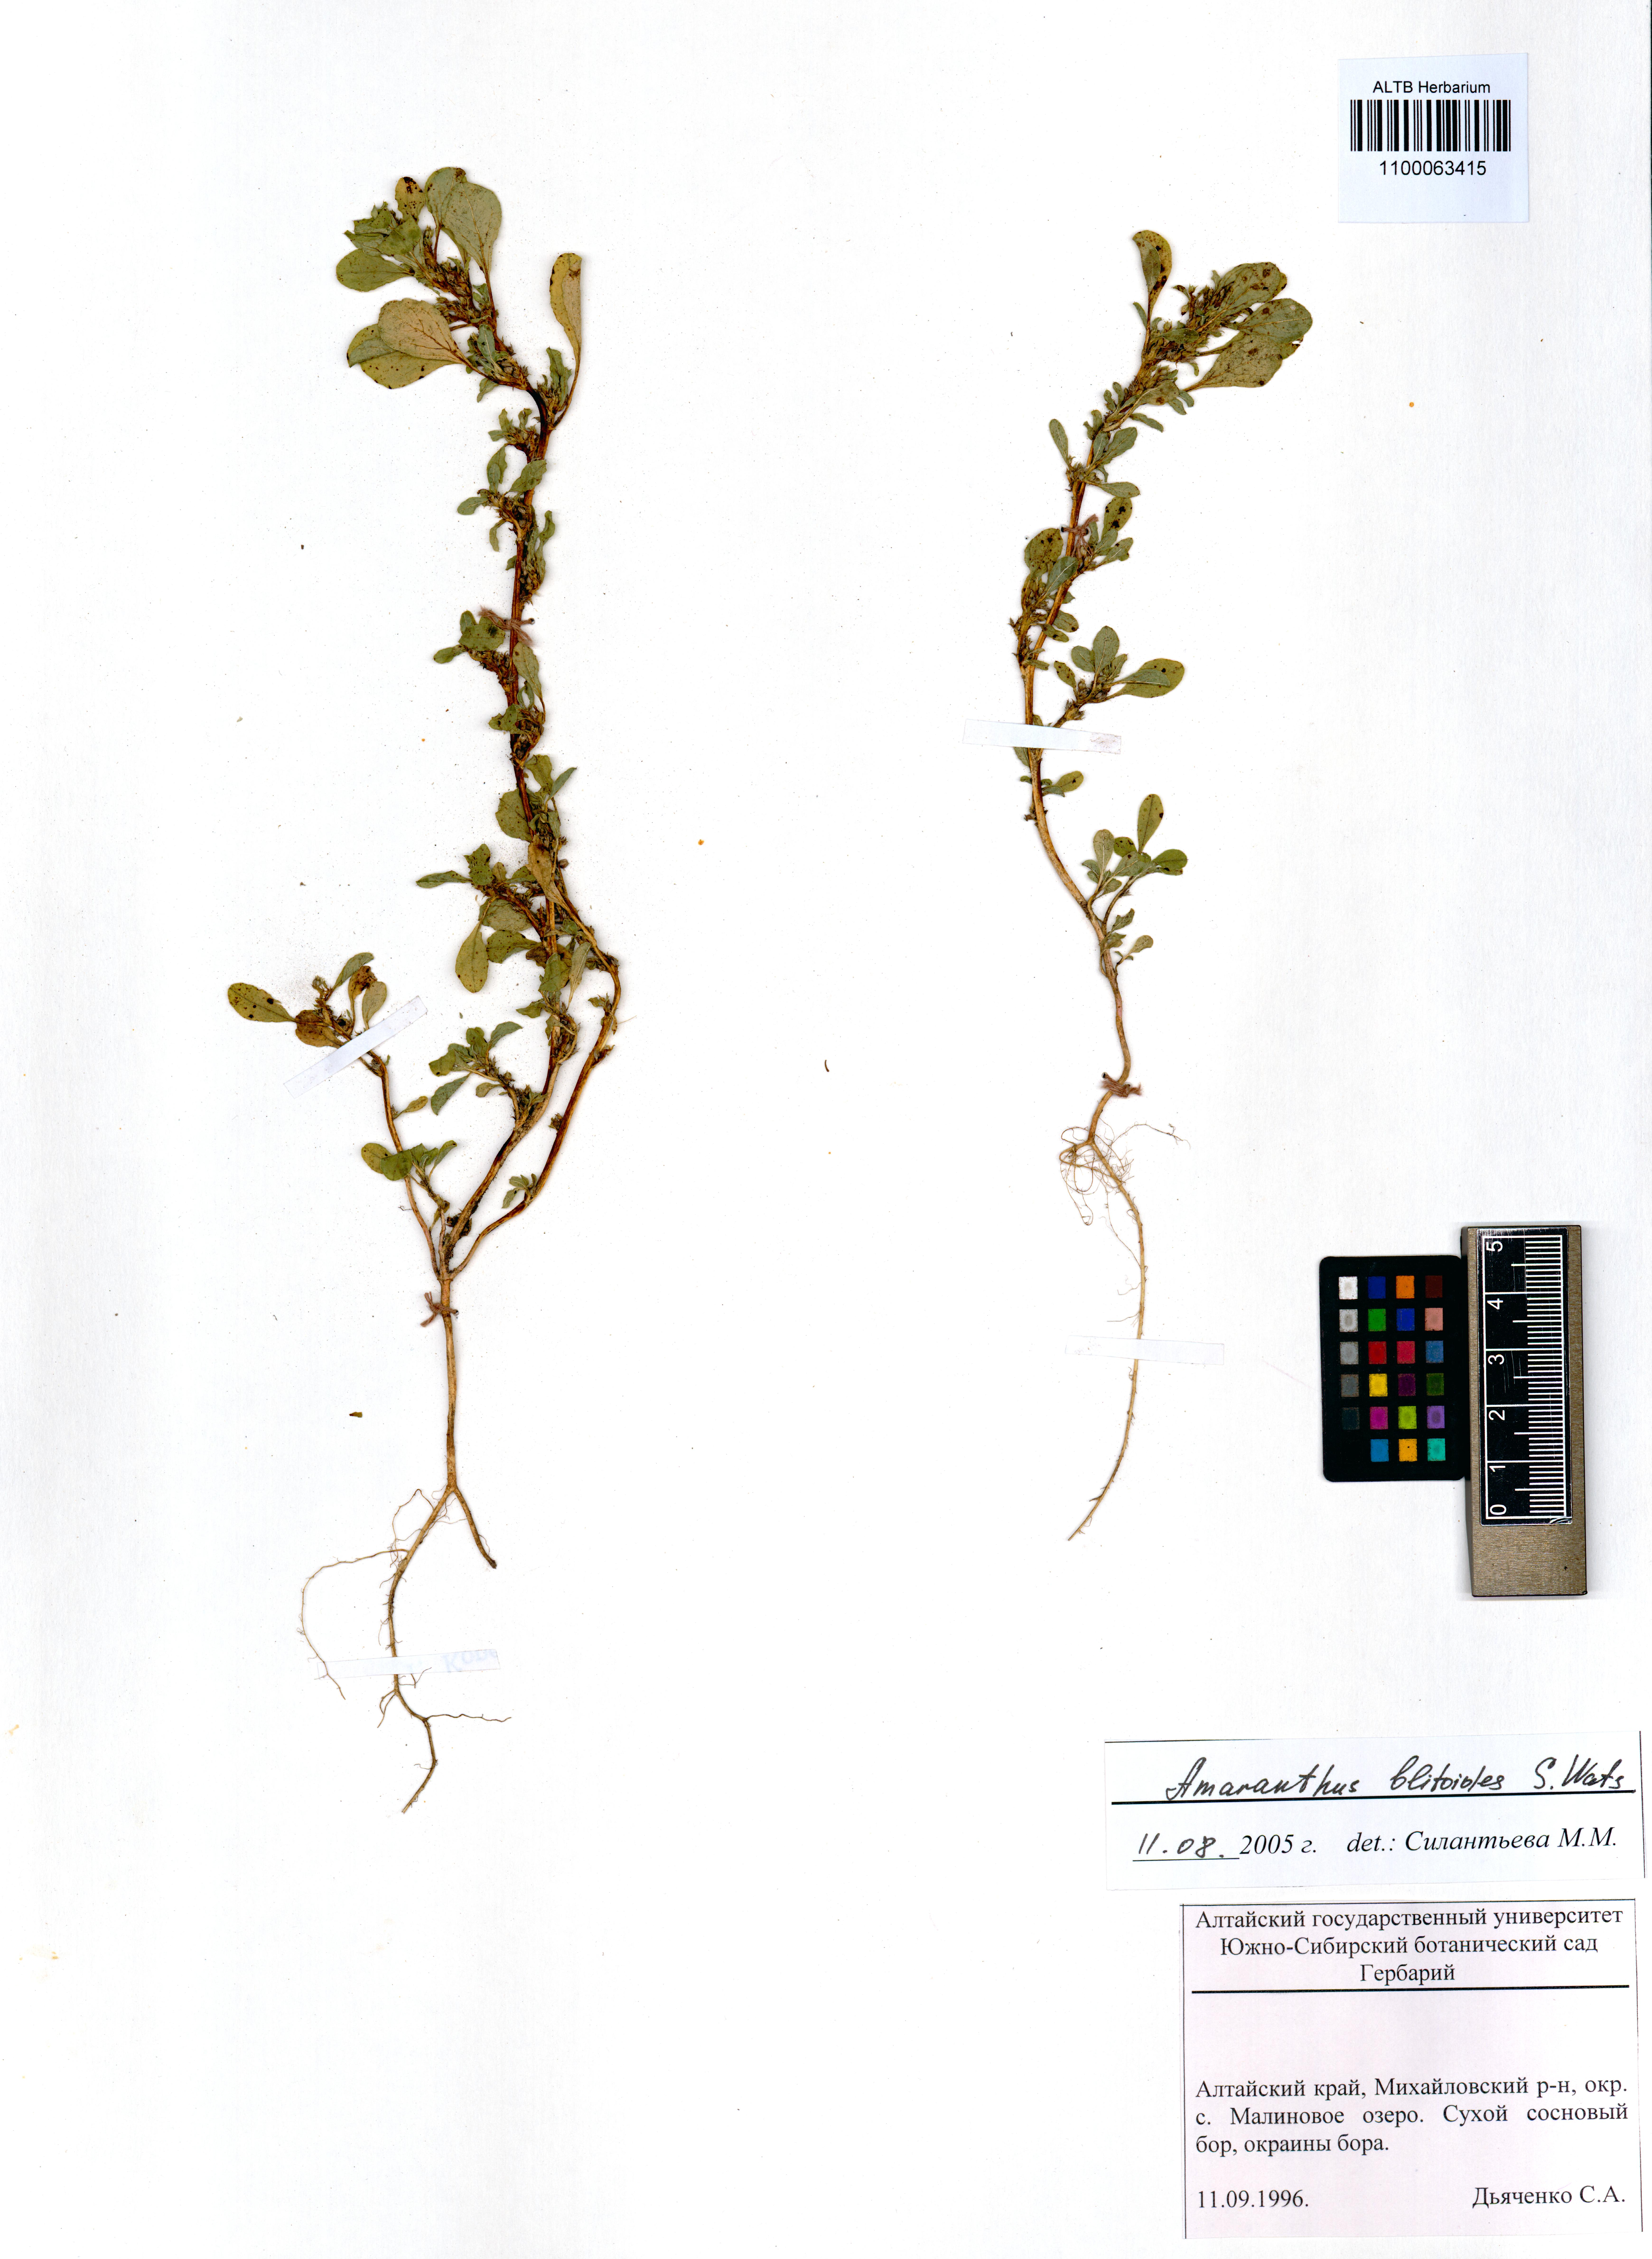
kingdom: Plantae
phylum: Tracheophyta
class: Magnoliopsida
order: Caryophyllales
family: Amaranthaceae
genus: Amaranthus
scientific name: Amaranthus blitoides
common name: Prostrate pigweed
